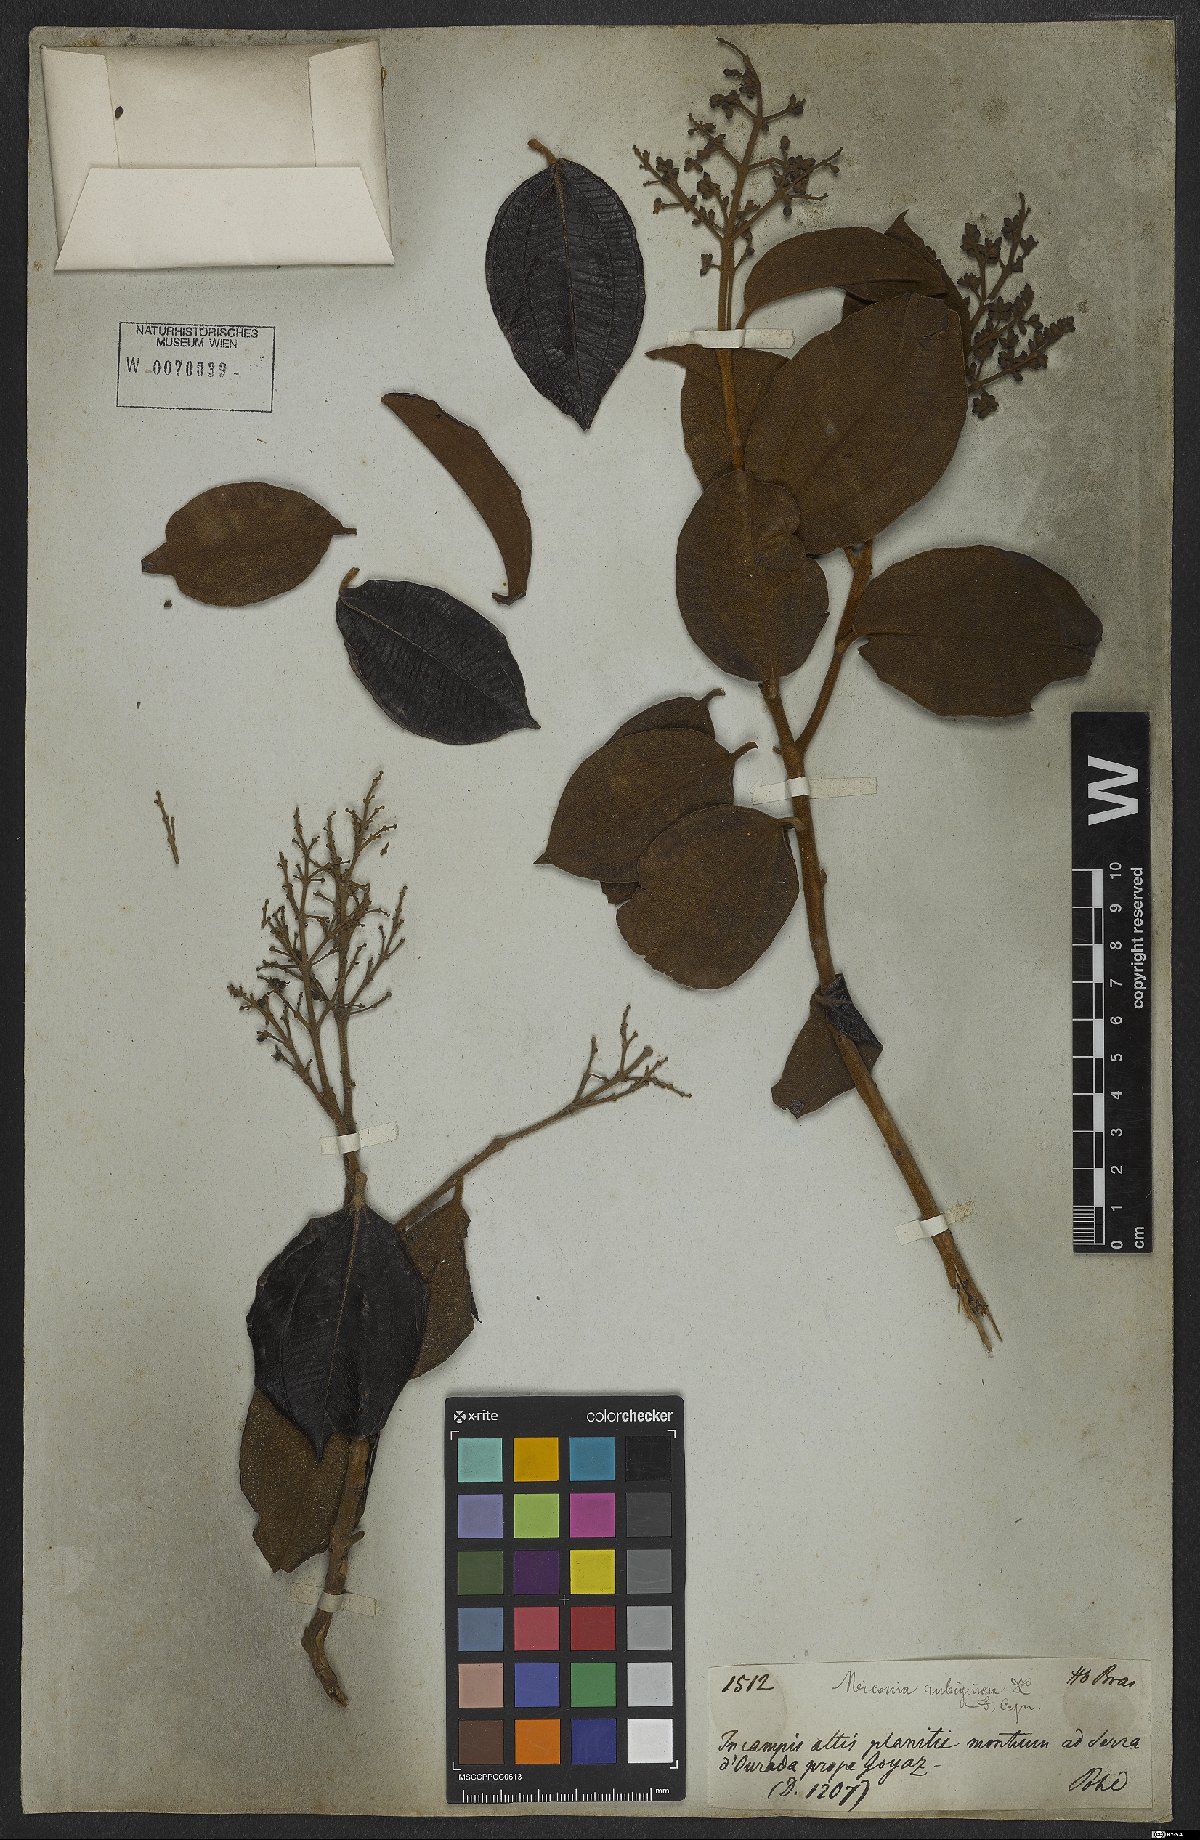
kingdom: Plantae
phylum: Tracheophyta
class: Magnoliopsida
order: Myrtales
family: Melastomataceae
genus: Miconia
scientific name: Miconia rubiginosa
